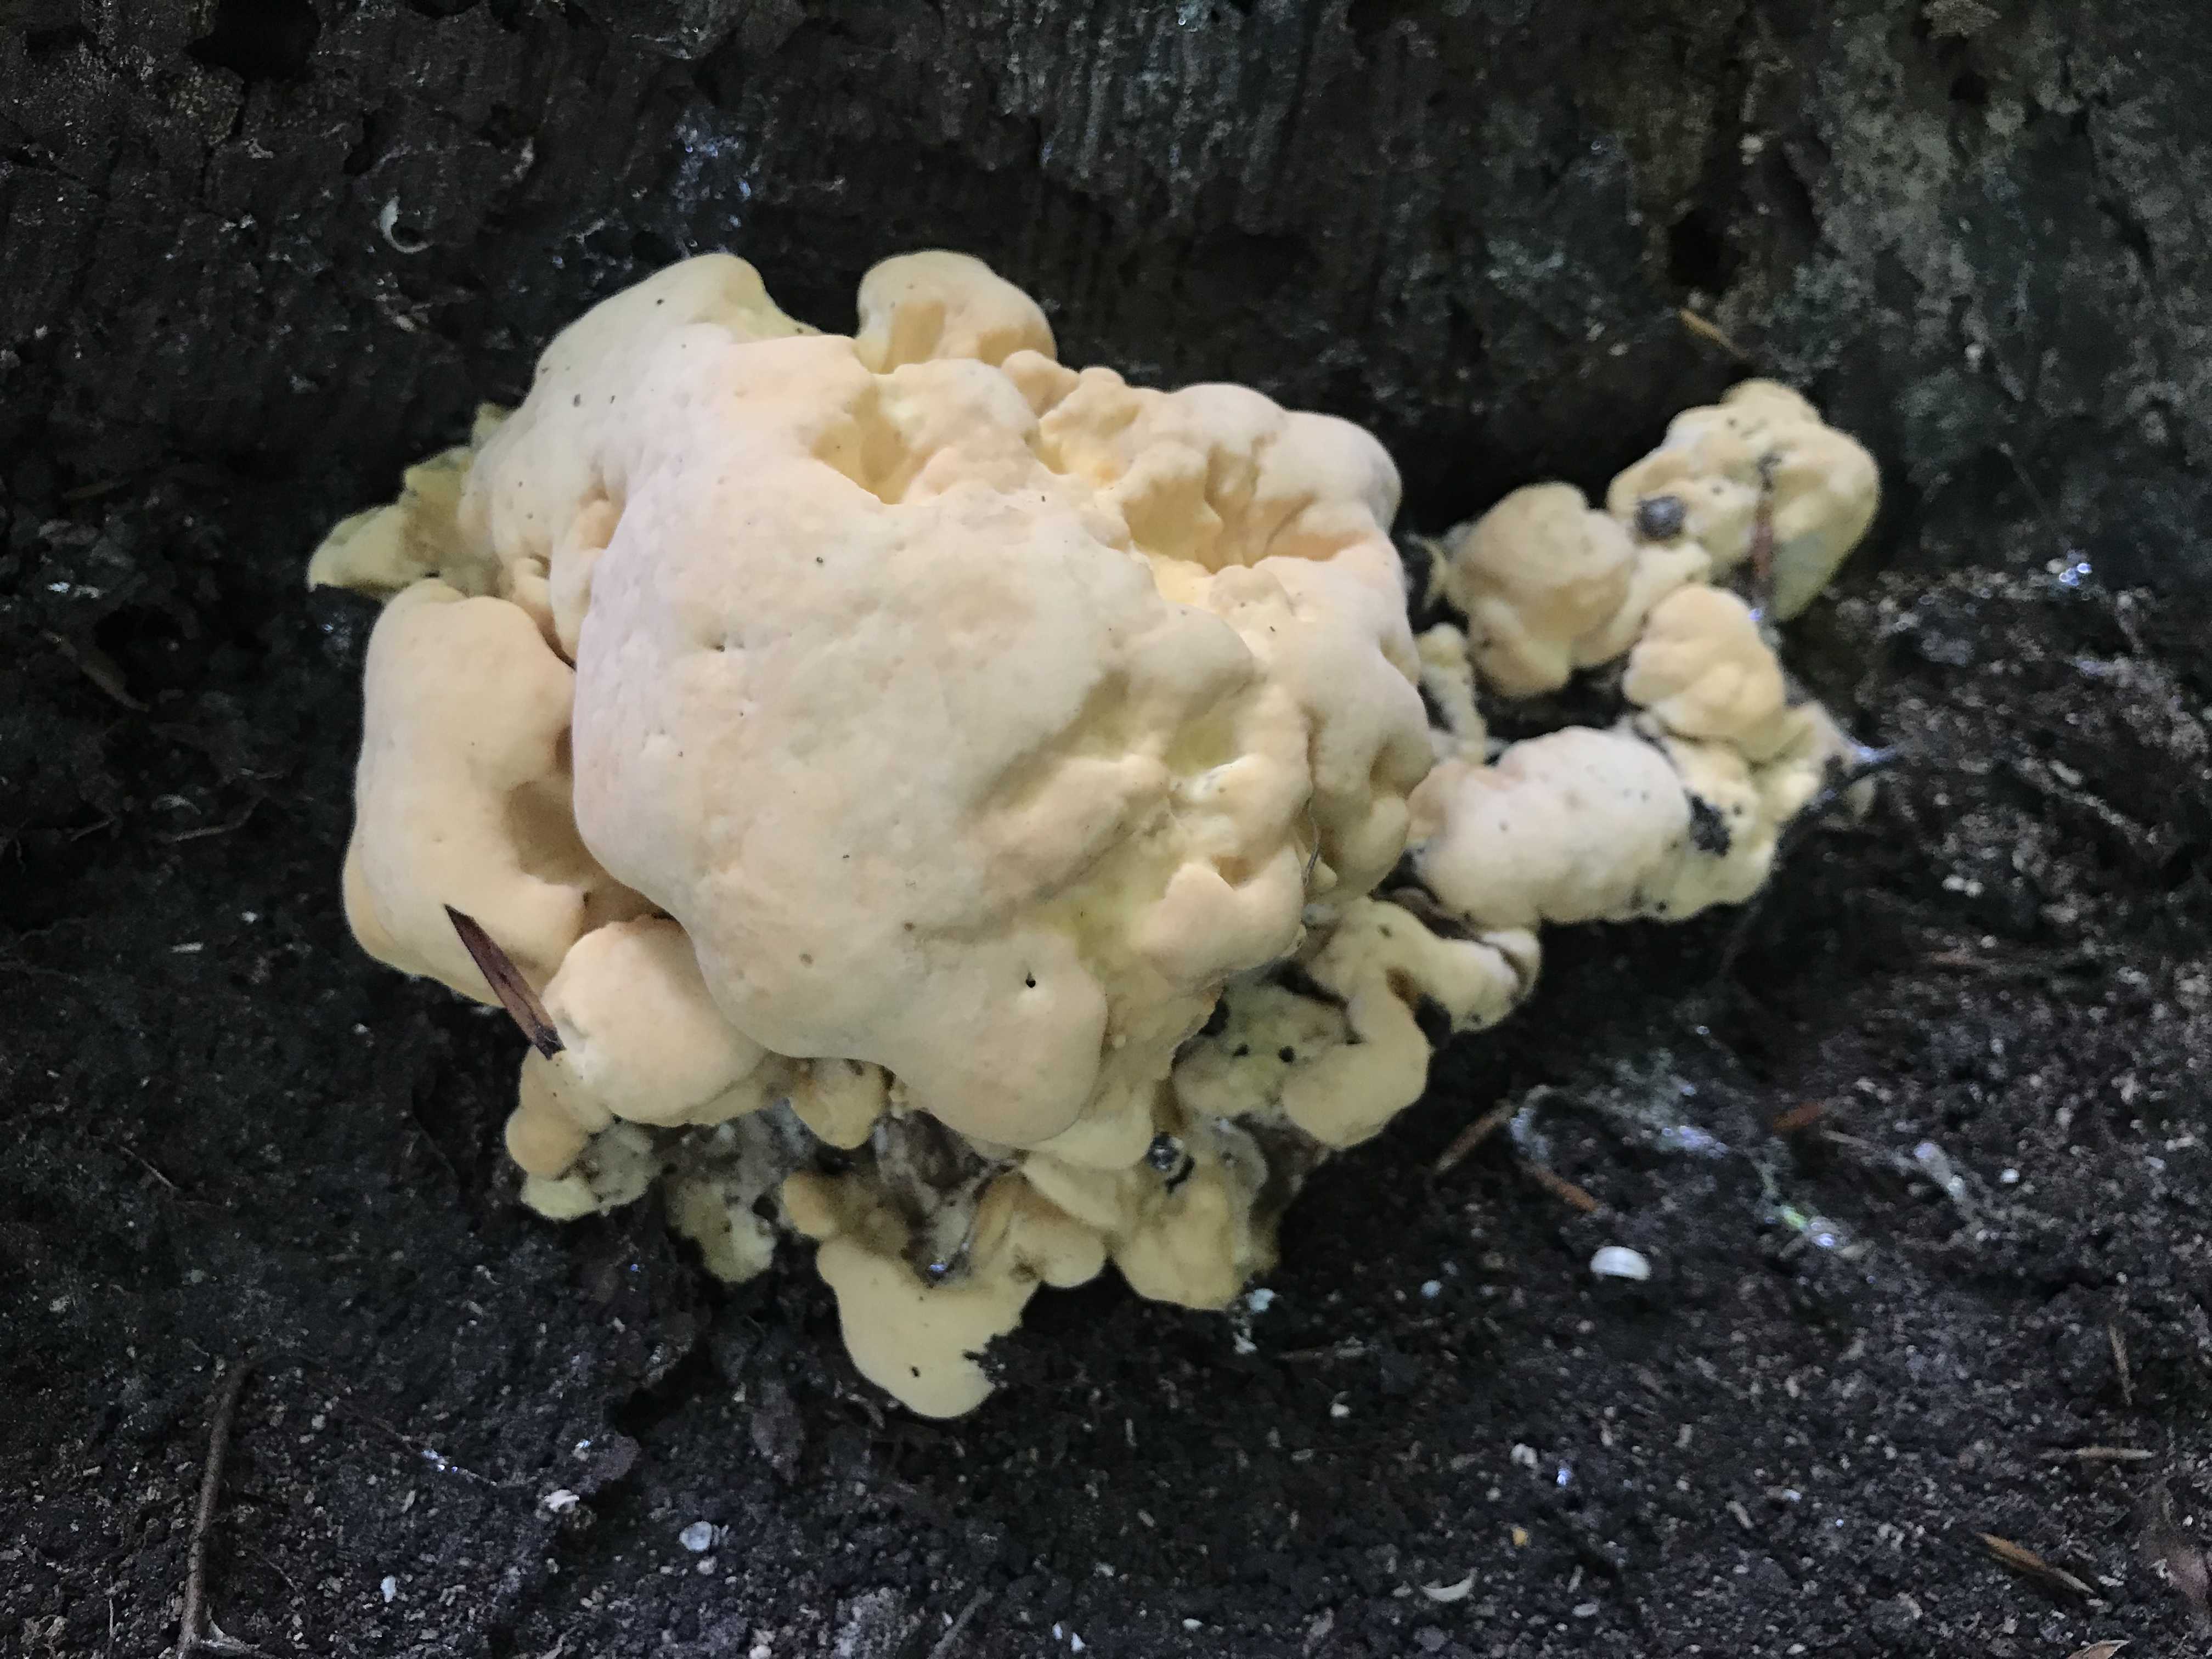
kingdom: Fungi
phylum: Basidiomycota
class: Agaricomycetes
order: Polyporales
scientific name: Polyporales
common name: poresvampordenen
